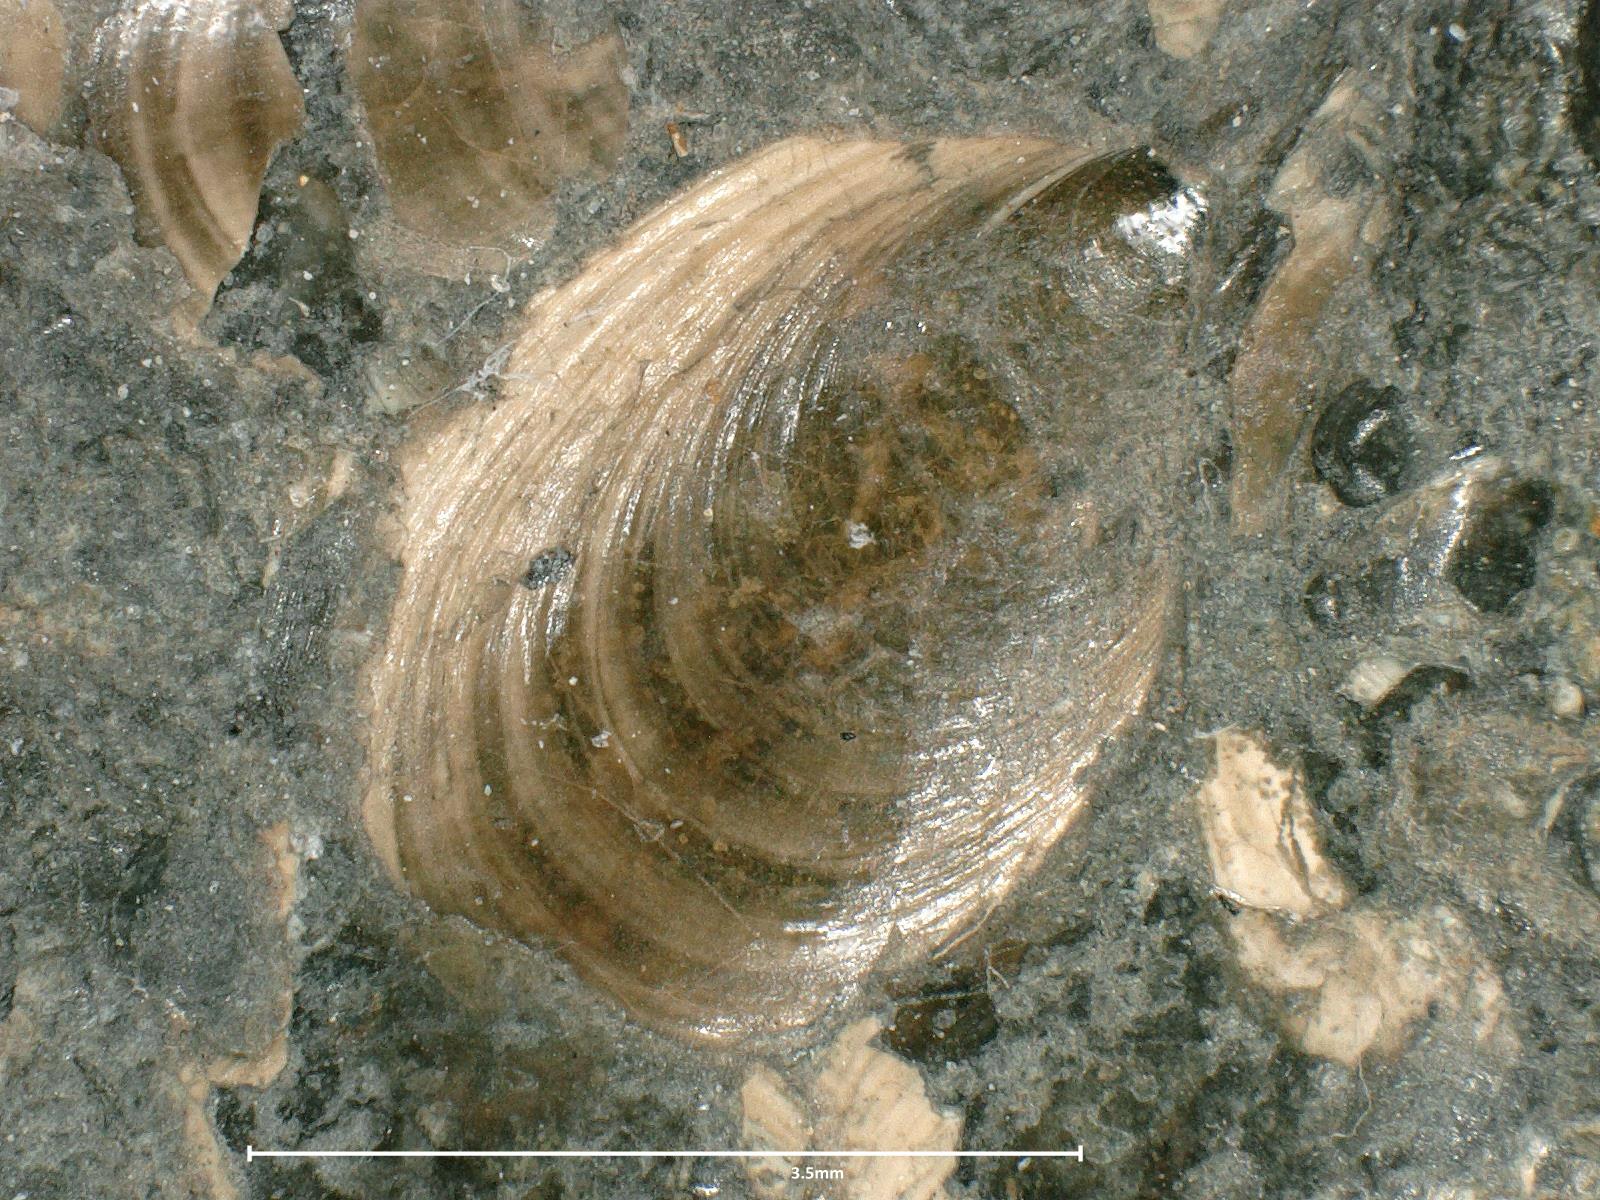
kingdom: Animalia
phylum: Brachiopoda
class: Lingulata
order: Lingulida
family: Lingulidae
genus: Lingula
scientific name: Lingula longoviciensis
